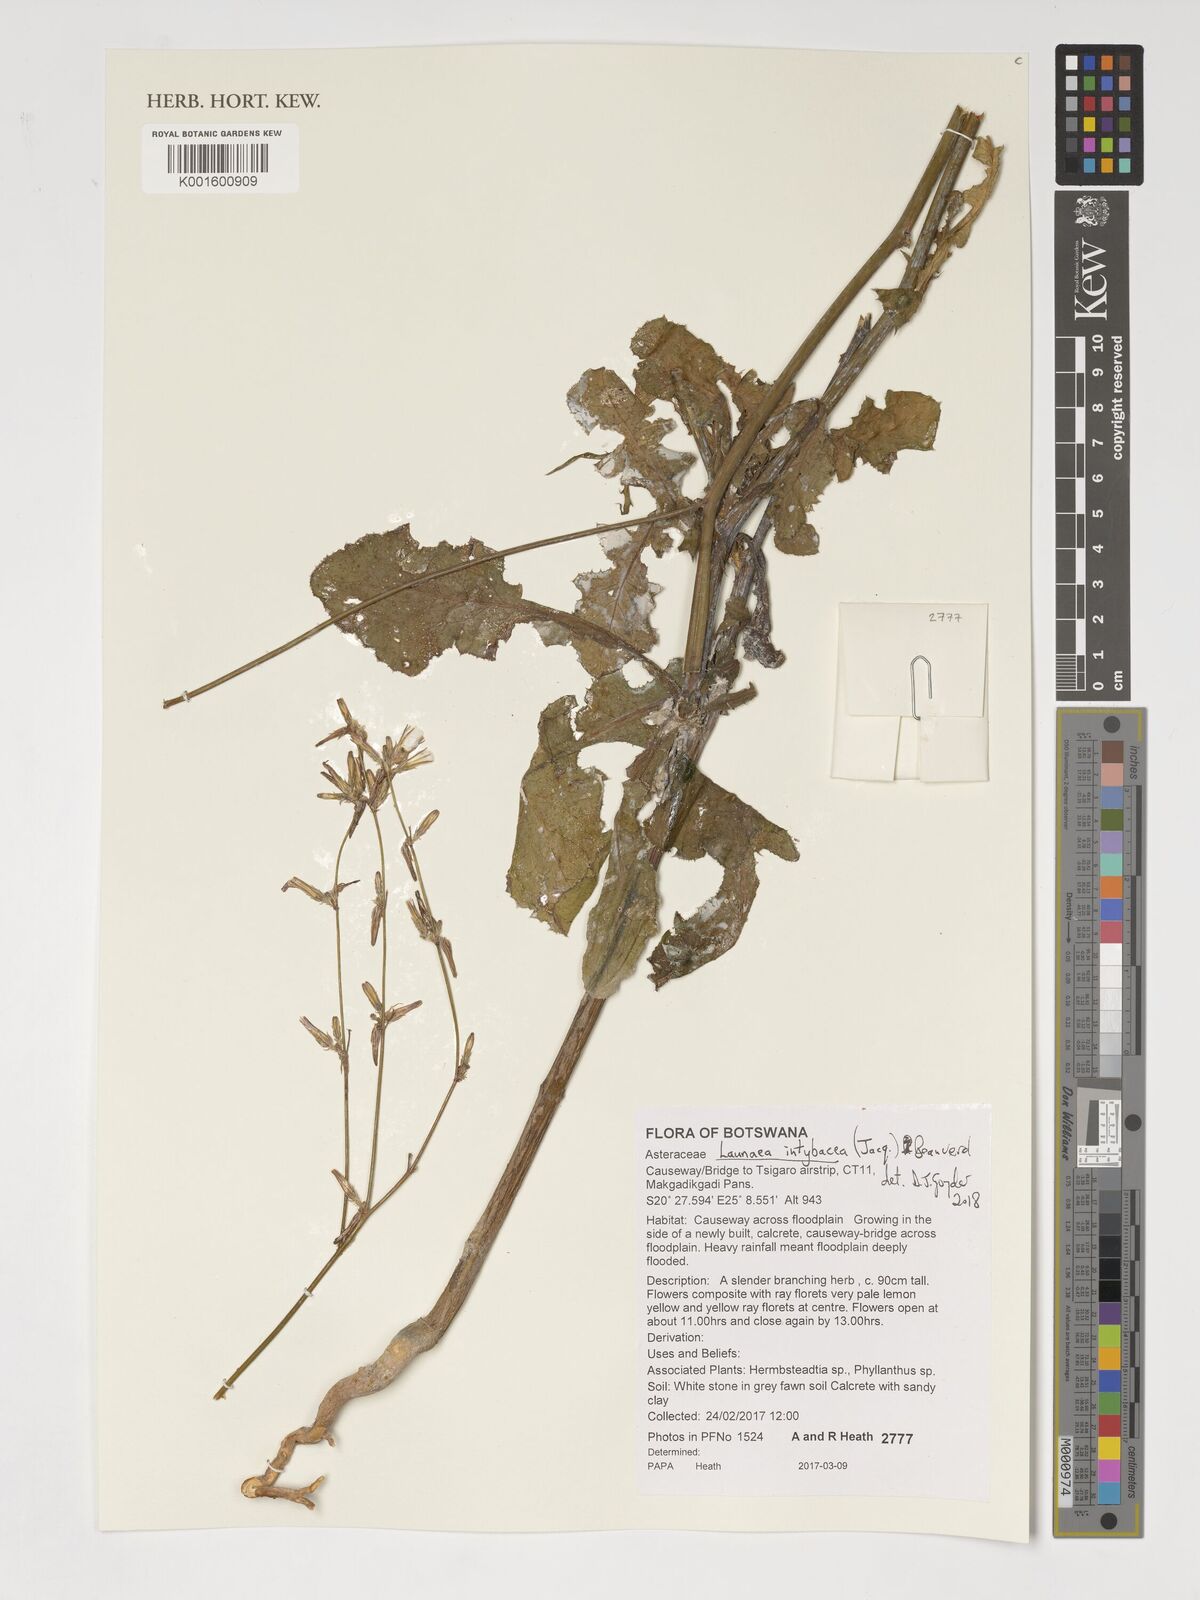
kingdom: Plantae
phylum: Tracheophyta
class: Magnoliopsida
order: Asterales
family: Asteraceae
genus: Launaea
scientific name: Launaea intybacea
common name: Achicoria azul
